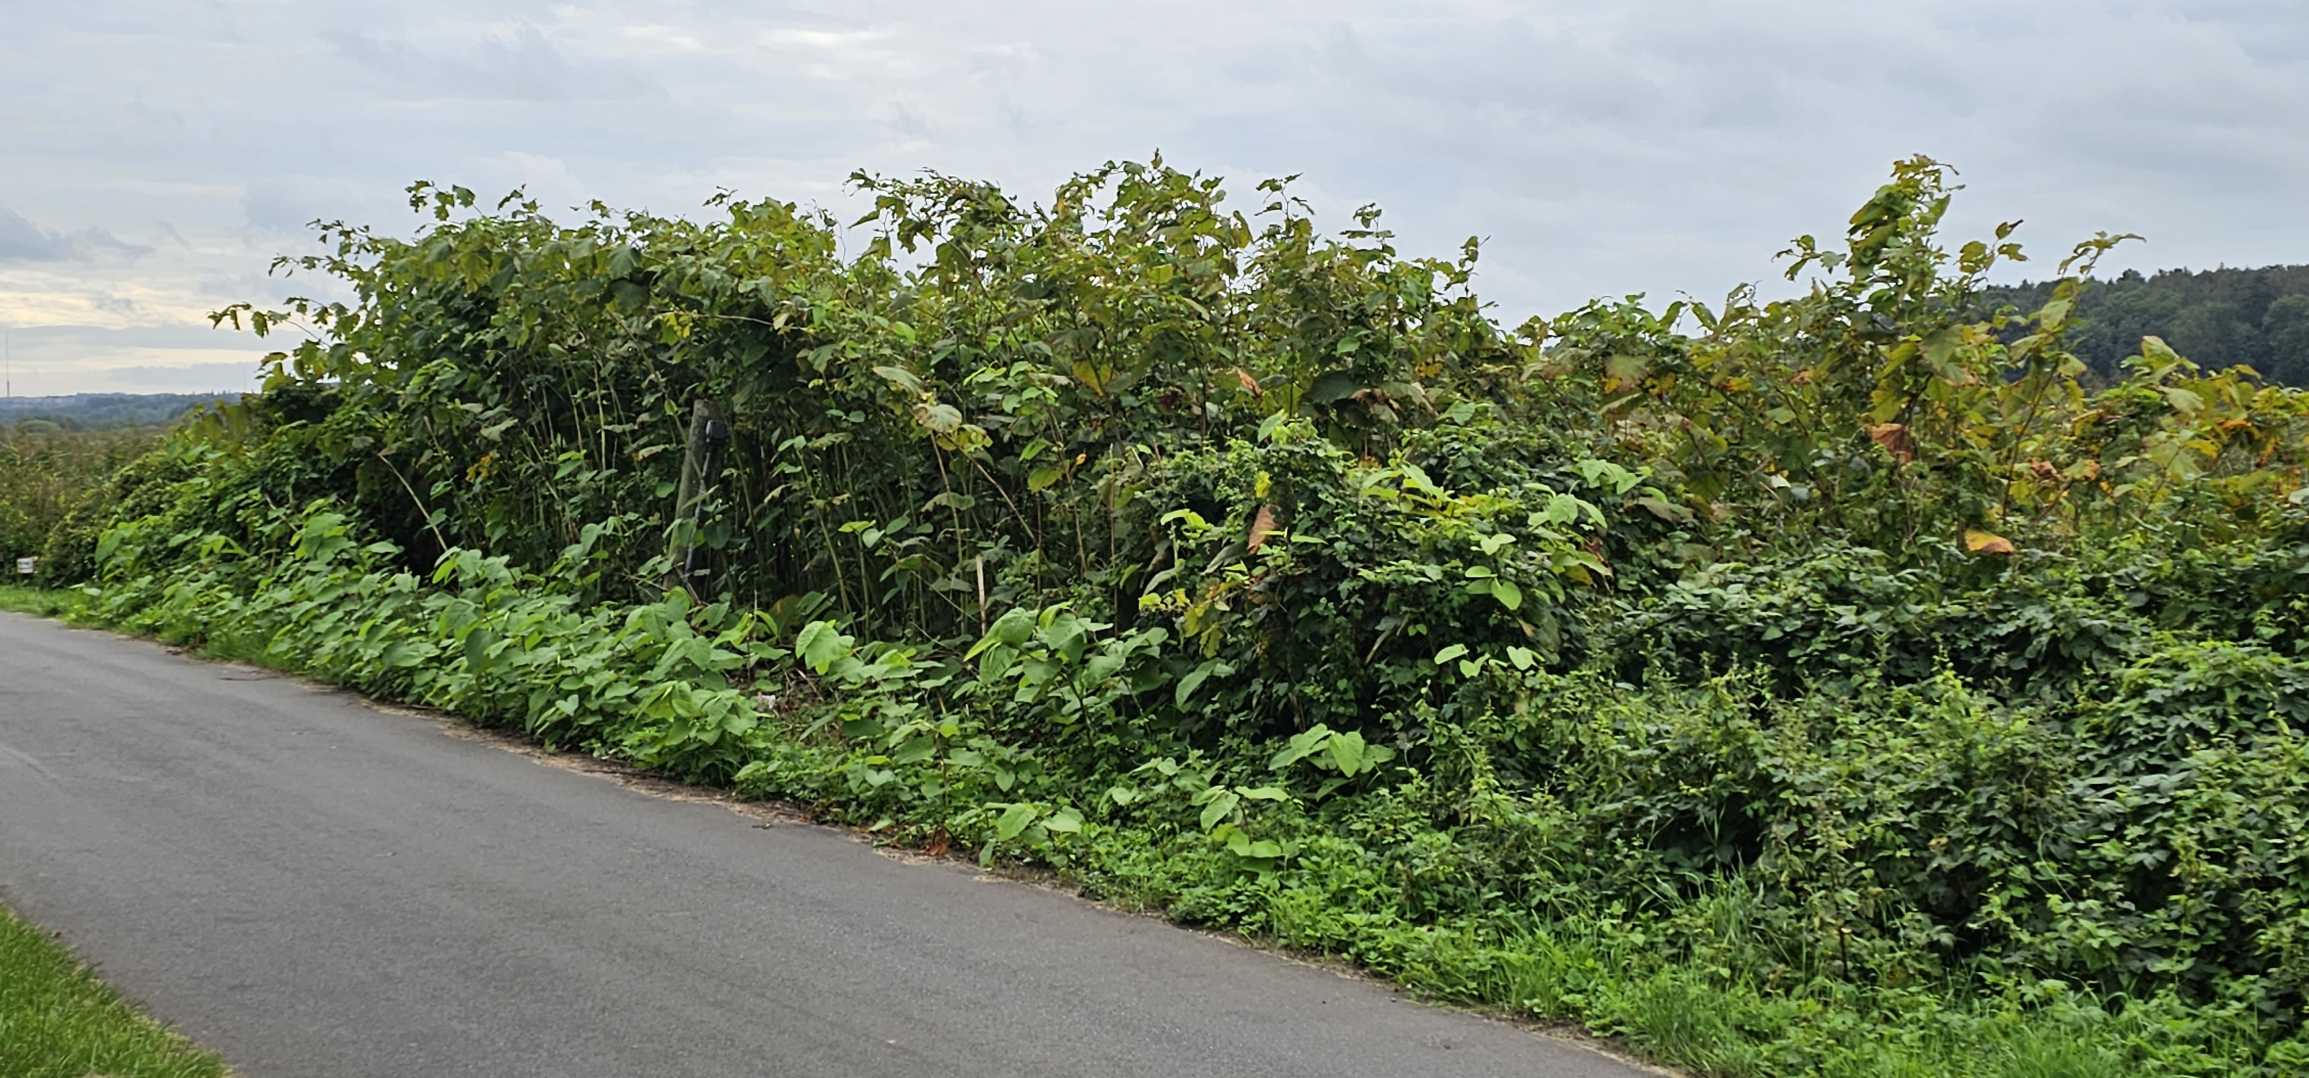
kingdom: Plantae
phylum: Tracheophyta
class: Magnoliopsida
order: Caryophyllales
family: Polygonaceae
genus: Reynoutria
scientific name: Reynoutria sachalinensis
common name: Kæmpe-pileurt
